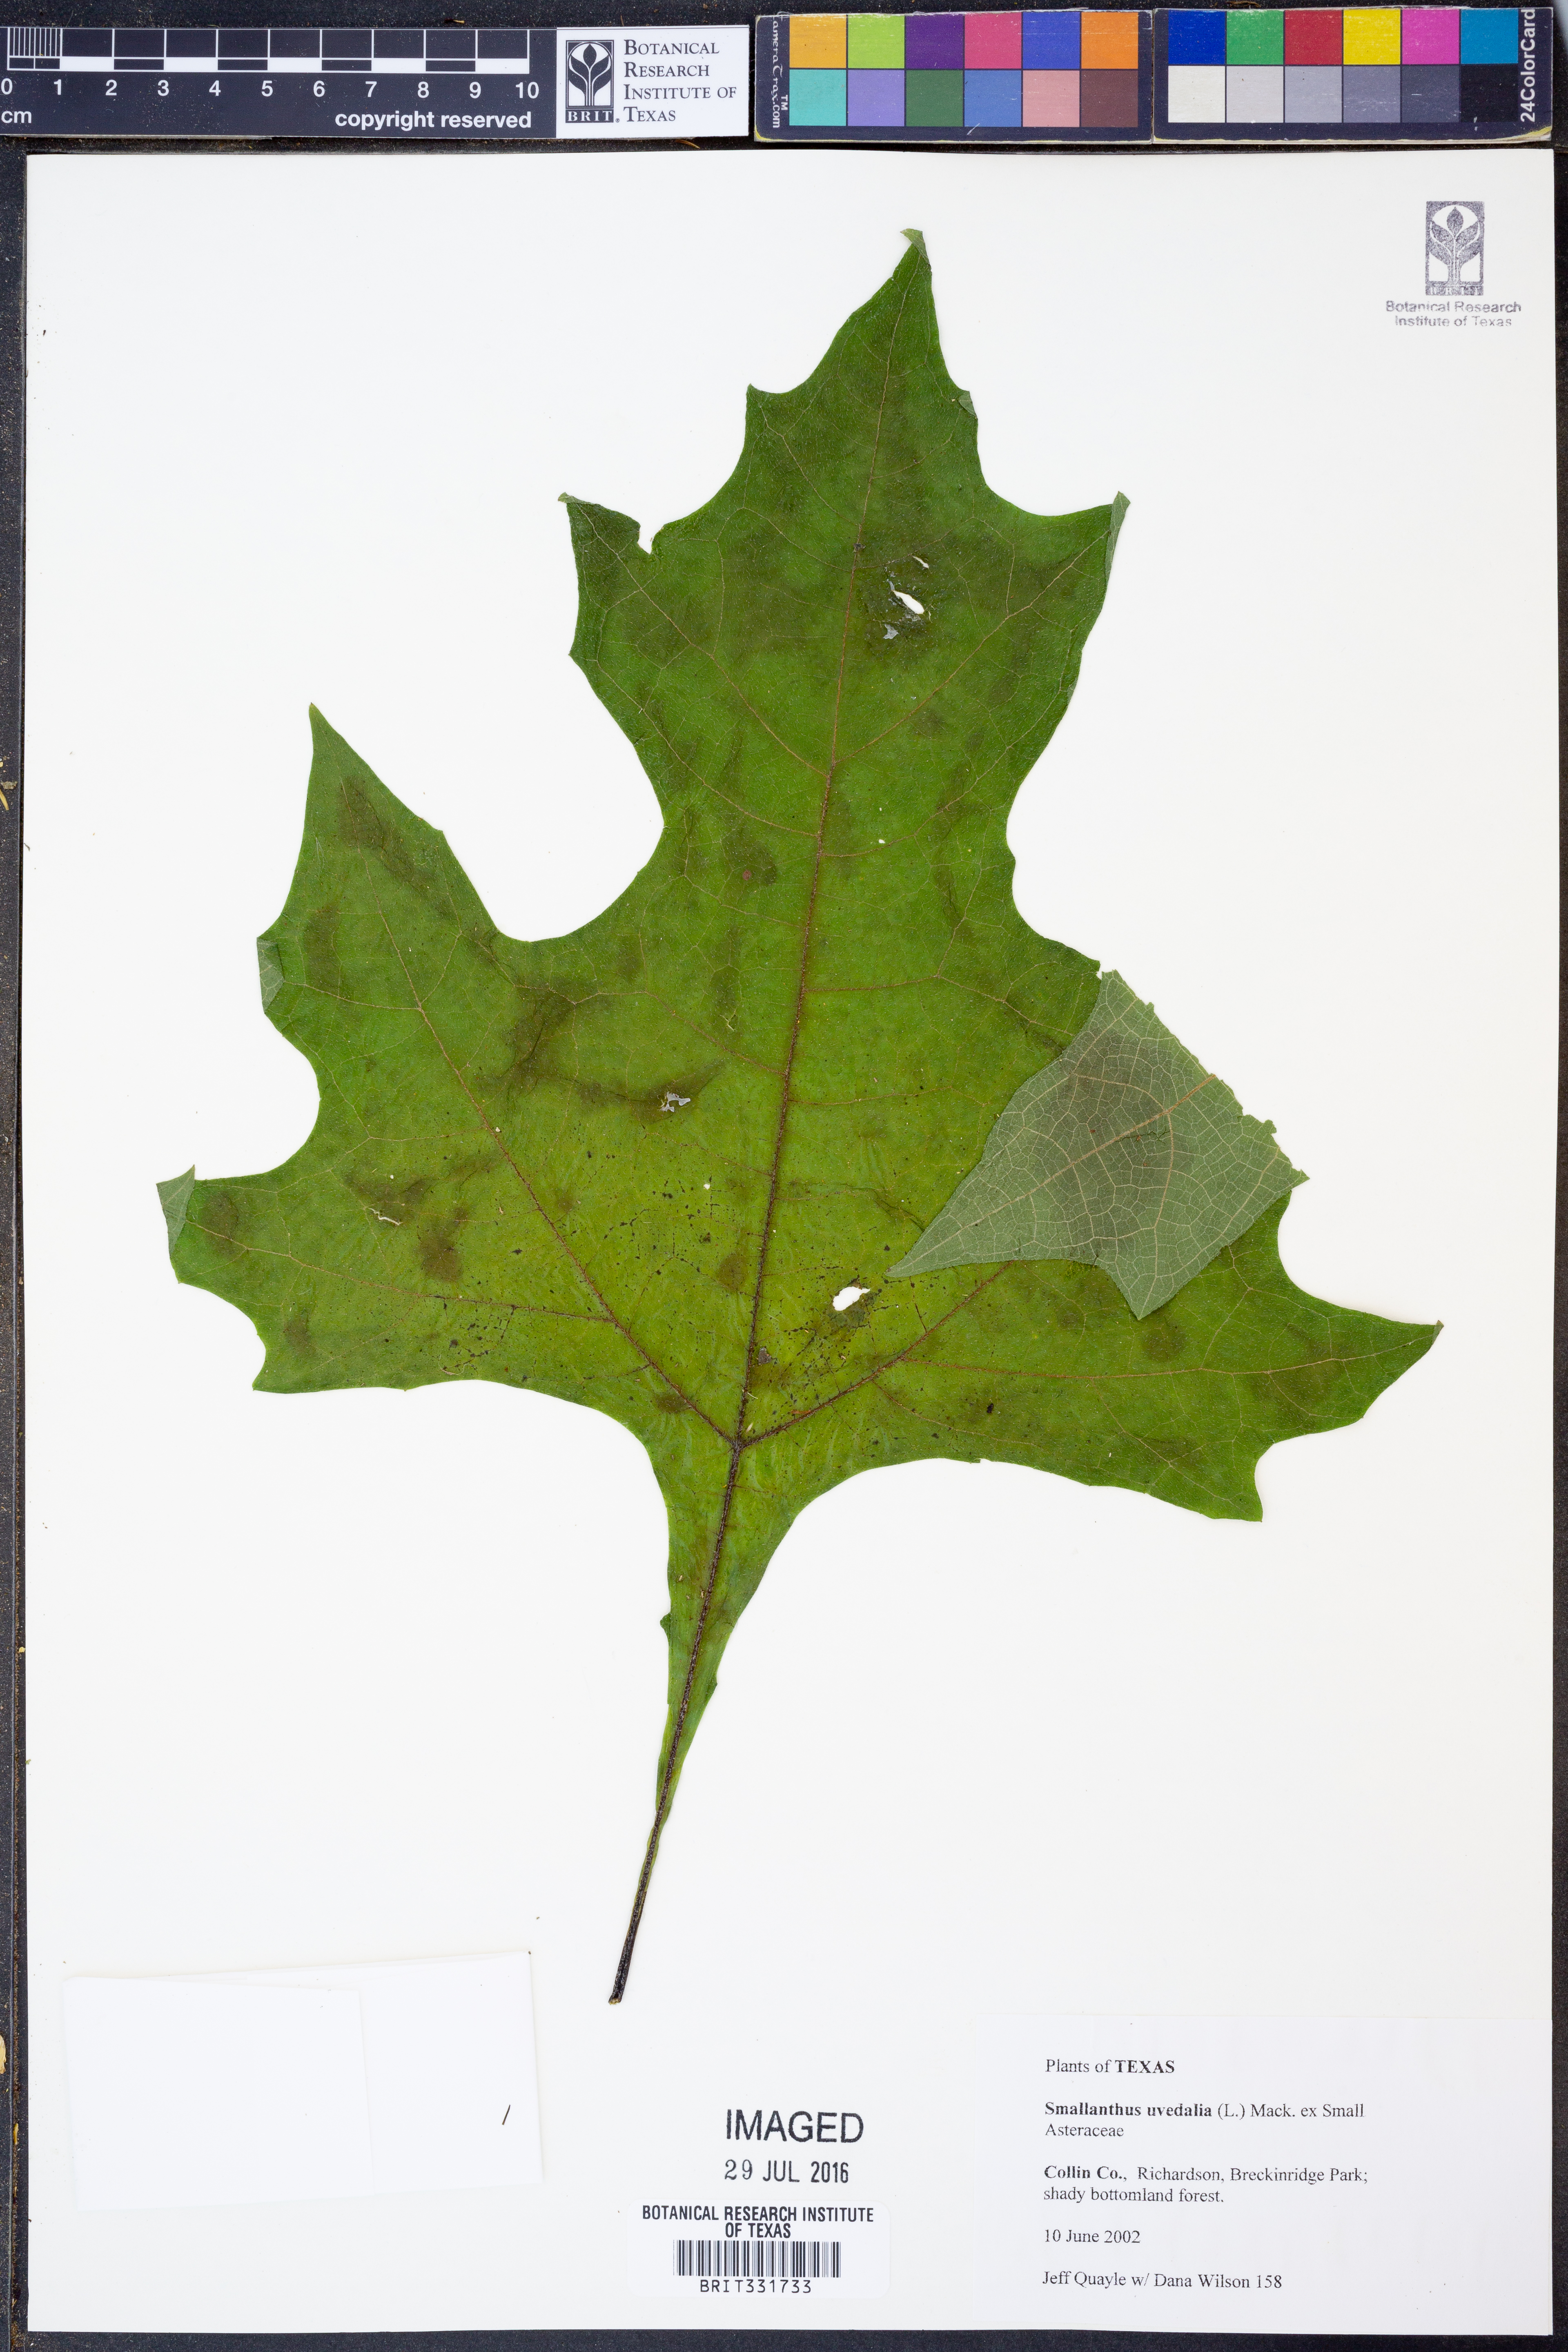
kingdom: Plantae
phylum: Tracheophyta
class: Magnoliopsida
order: Asterales
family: Asteraceae
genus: Smallanthus
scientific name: Smallanthus uvedalia
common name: Bear's-foot
